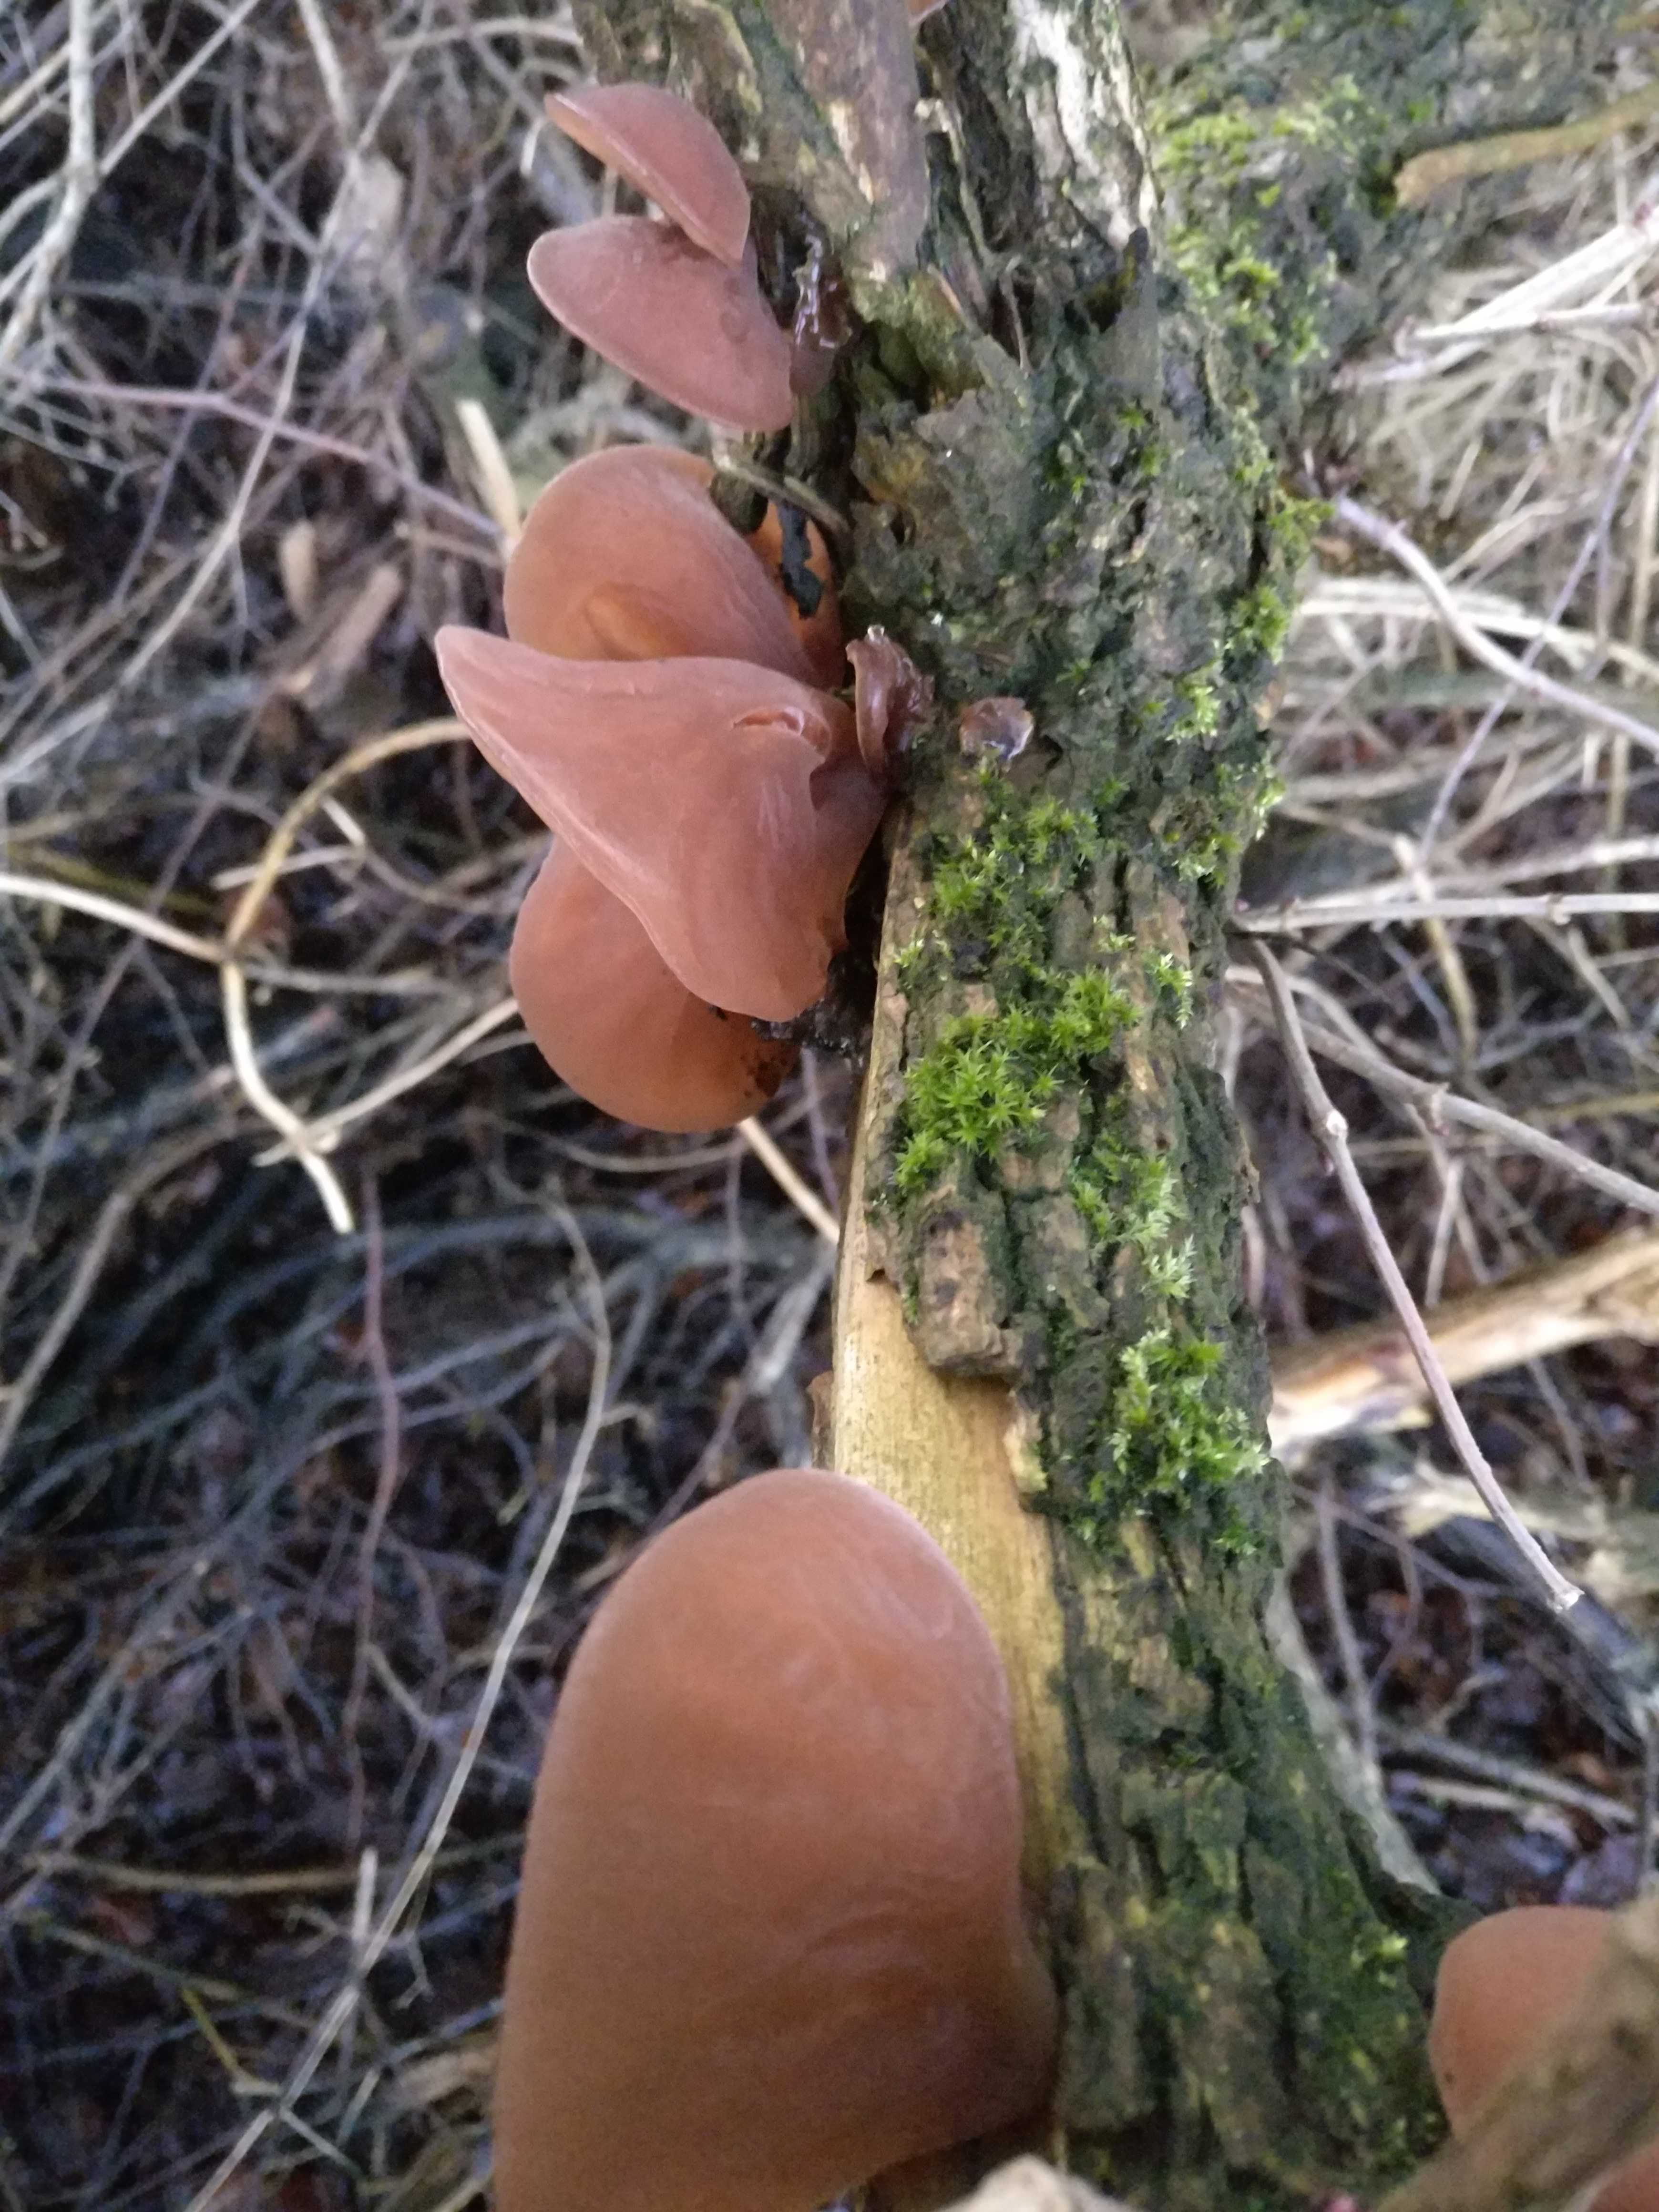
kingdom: Fungi
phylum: Basidiomycota
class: Agaricomycetes
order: Auriculariales
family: Auriculariaceae
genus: Auricularia
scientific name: Auricularia auricula-judae
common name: almindelig judasøre
